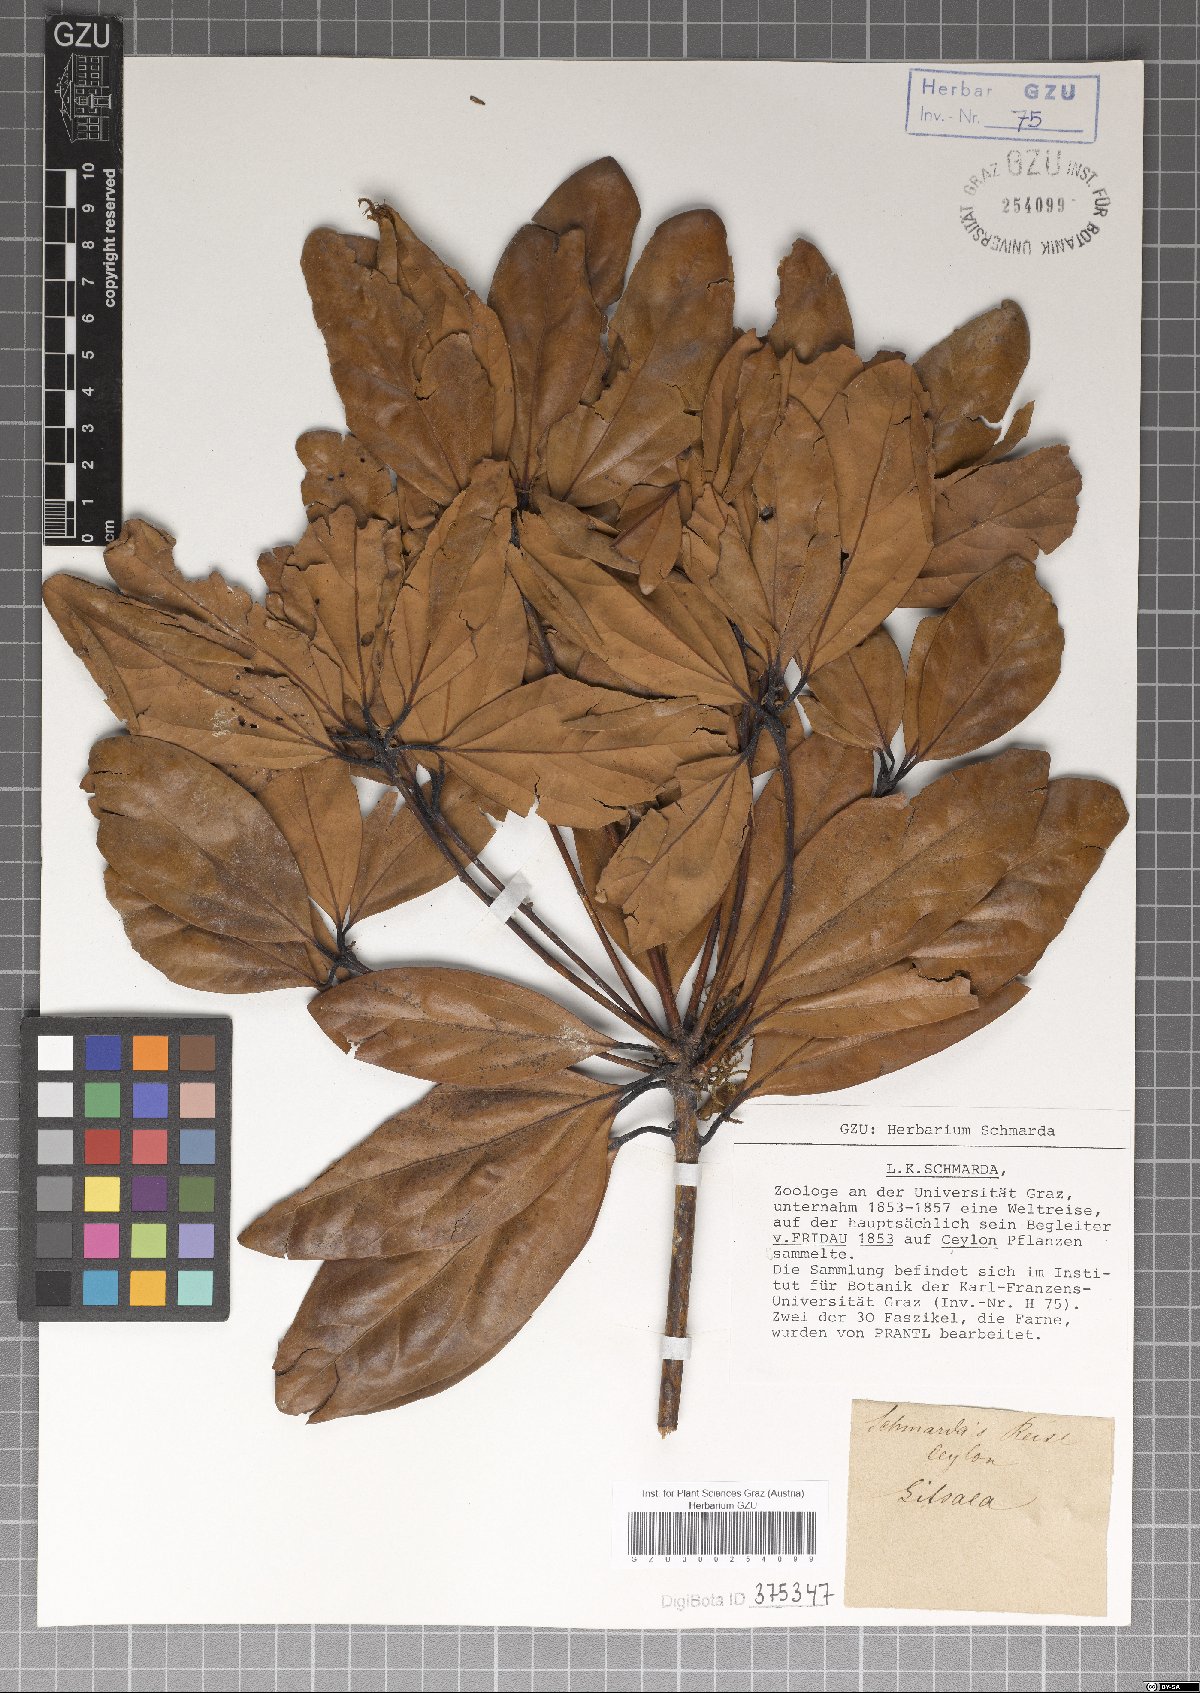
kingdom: Plantae
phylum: Tracheophyta
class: Magnoliopsida
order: Laurales
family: Lauraceae
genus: Litsea
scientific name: Litsea
